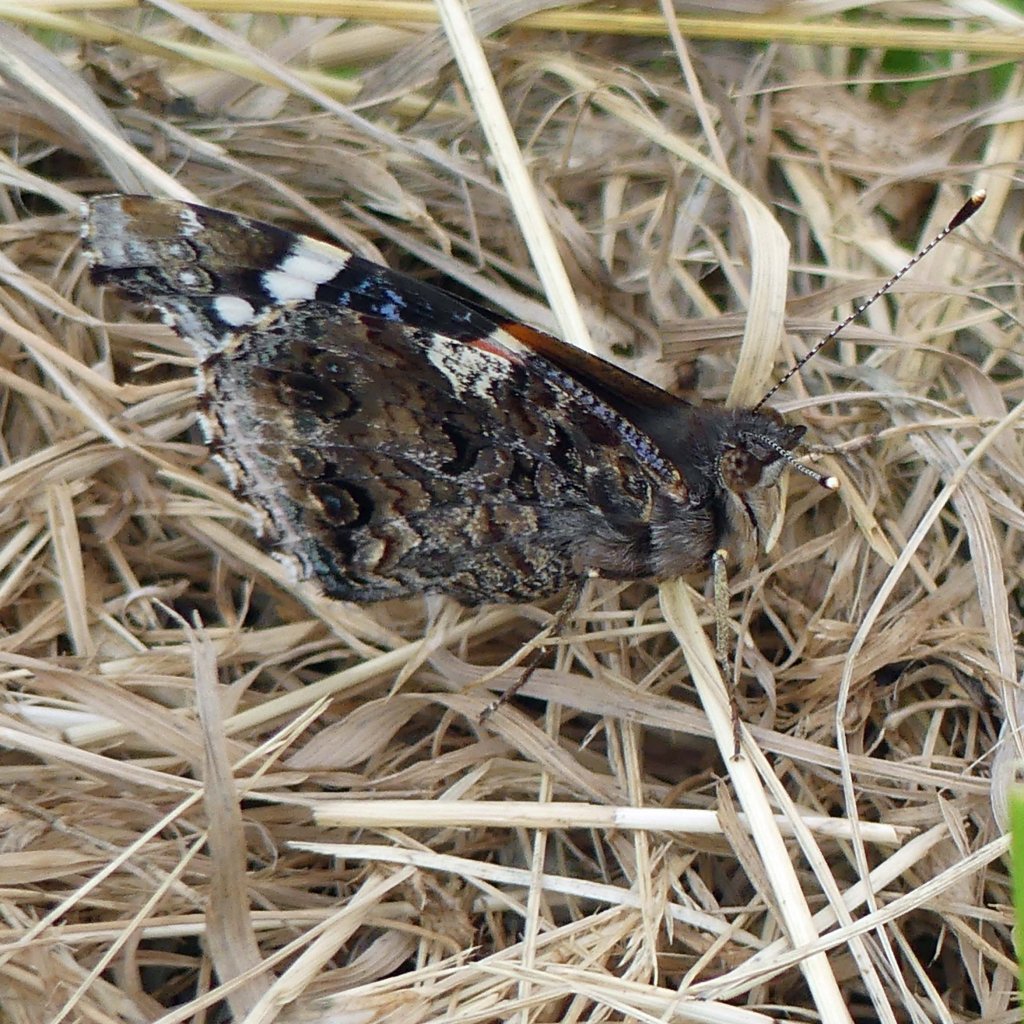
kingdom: Animalia
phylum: Arthropoda
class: Insecta
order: Lepidoptera
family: Nymphalidae
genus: Vanessa
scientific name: Vanessa atalanta
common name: Red Admiral
